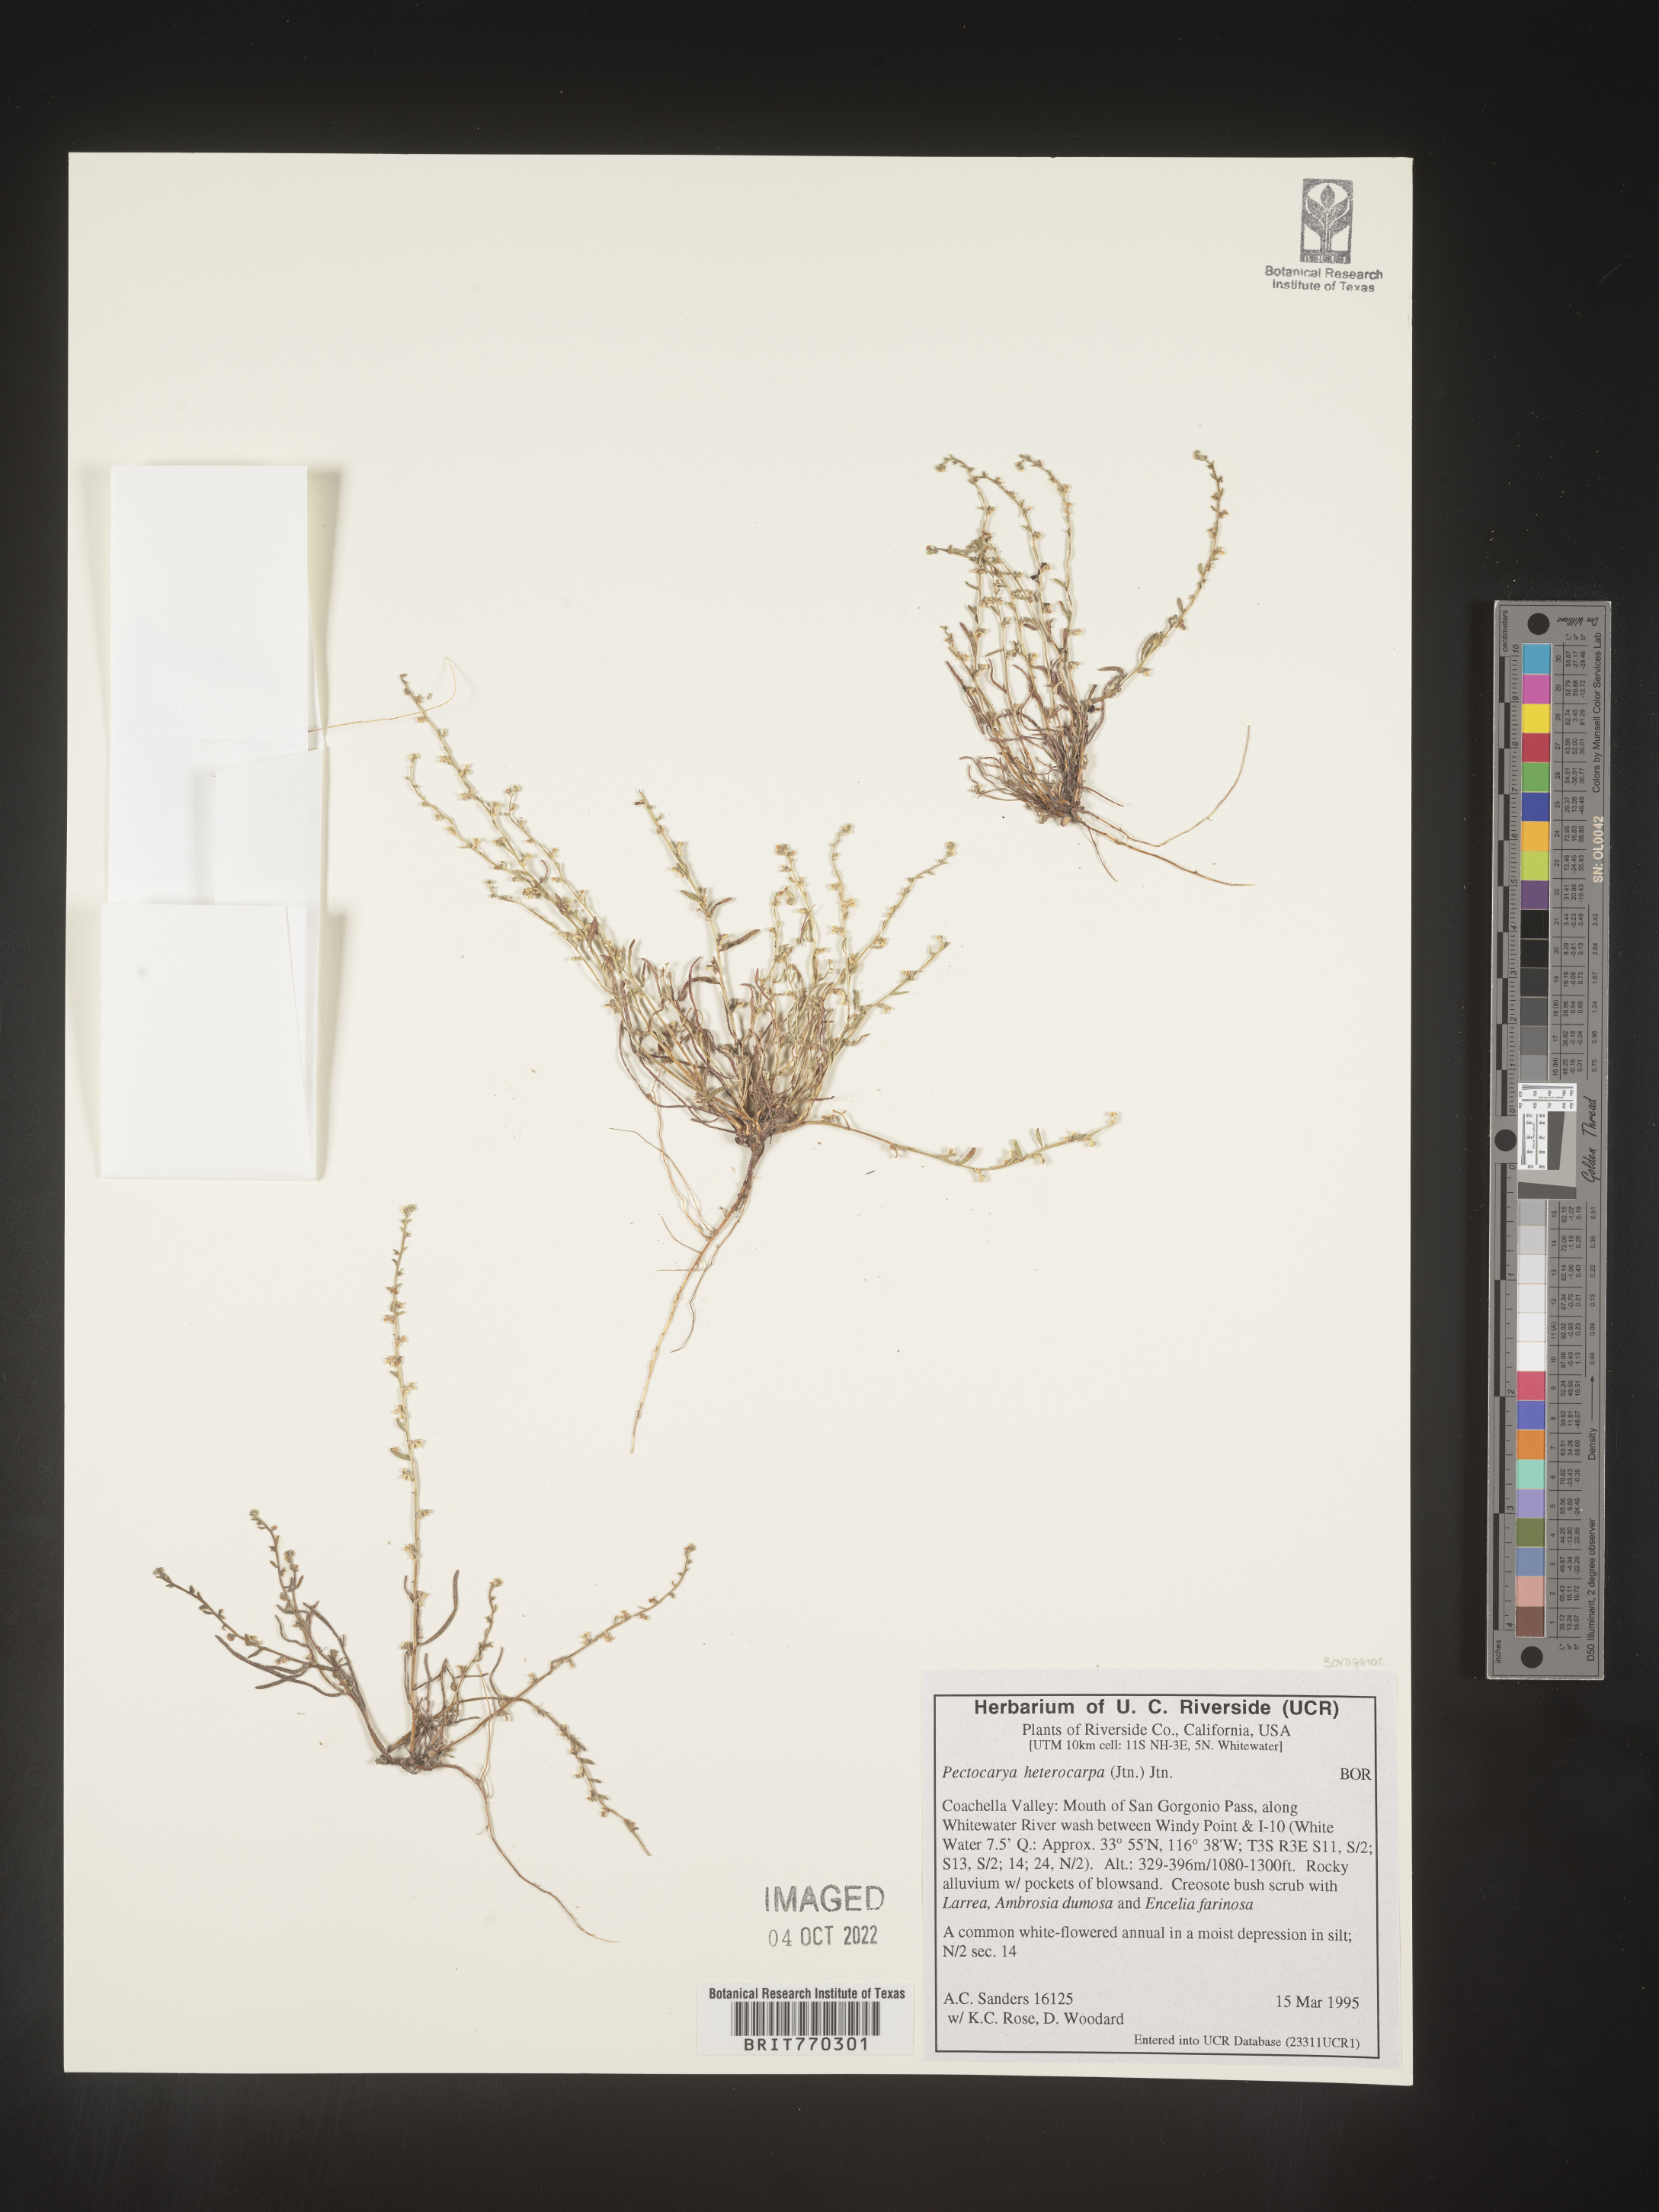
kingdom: Plantae
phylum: Tracheophyta
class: Magnoliopsida
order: Boraginales
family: Boraginaceae
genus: Pectocarya
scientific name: Pectocarya
